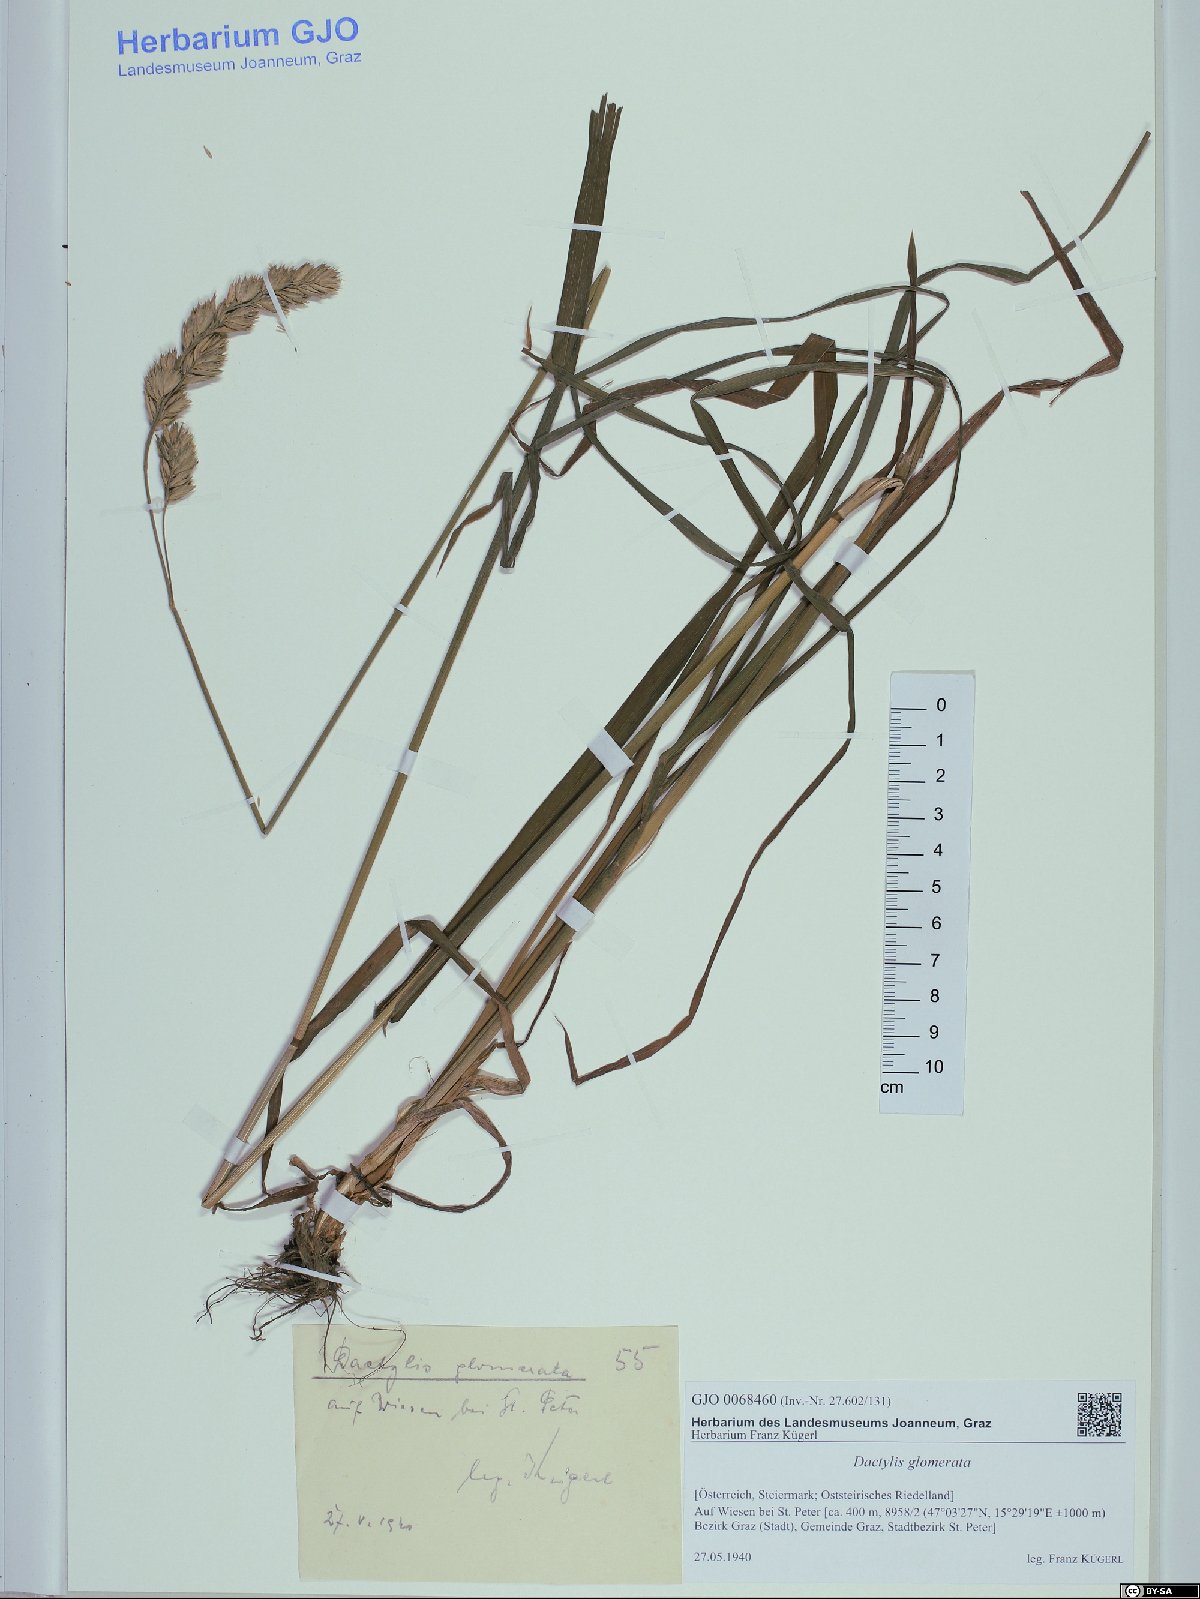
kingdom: Plantae
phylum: Tracheophyta
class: Liliopsida
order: Poales
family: Poaceae
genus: Dactylis
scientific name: Dactylis glomerata
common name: Orchardgrass
